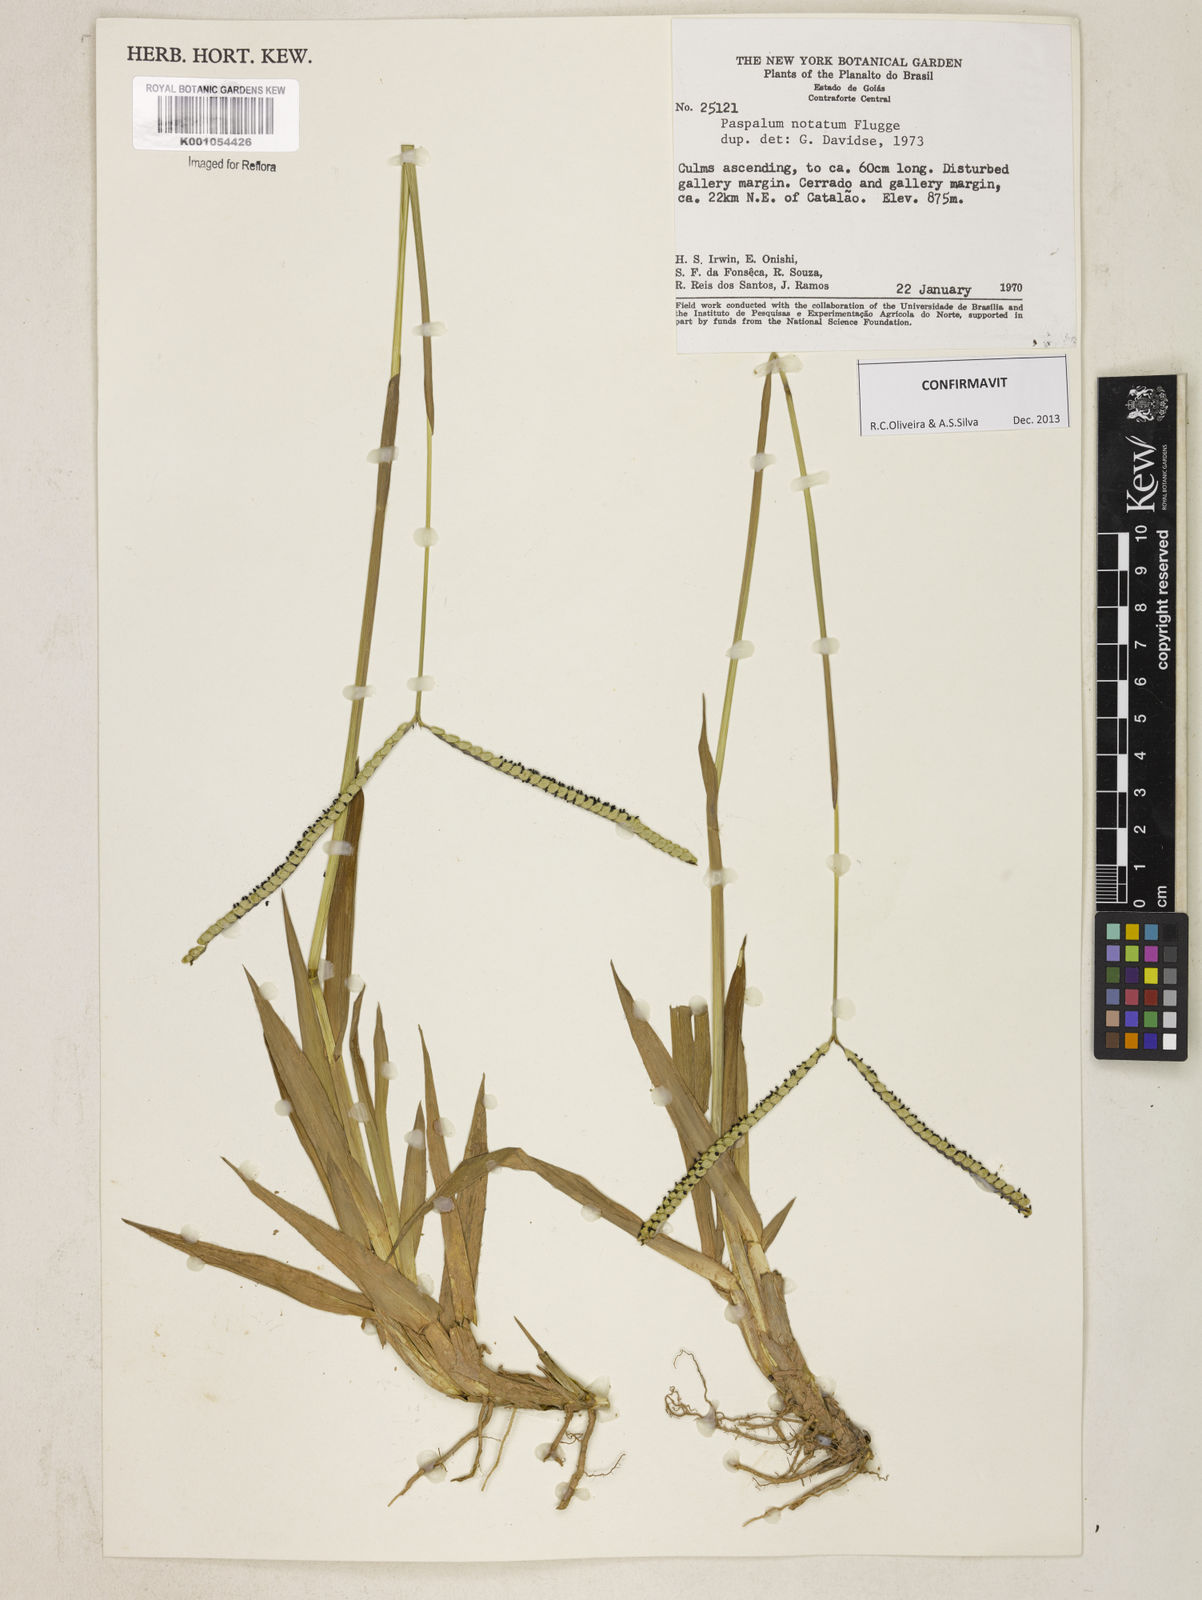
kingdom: Plantae
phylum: Tracheophyta
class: Liliopsida
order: Poales
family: Poaceae
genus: Paspalum
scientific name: Paspalum
